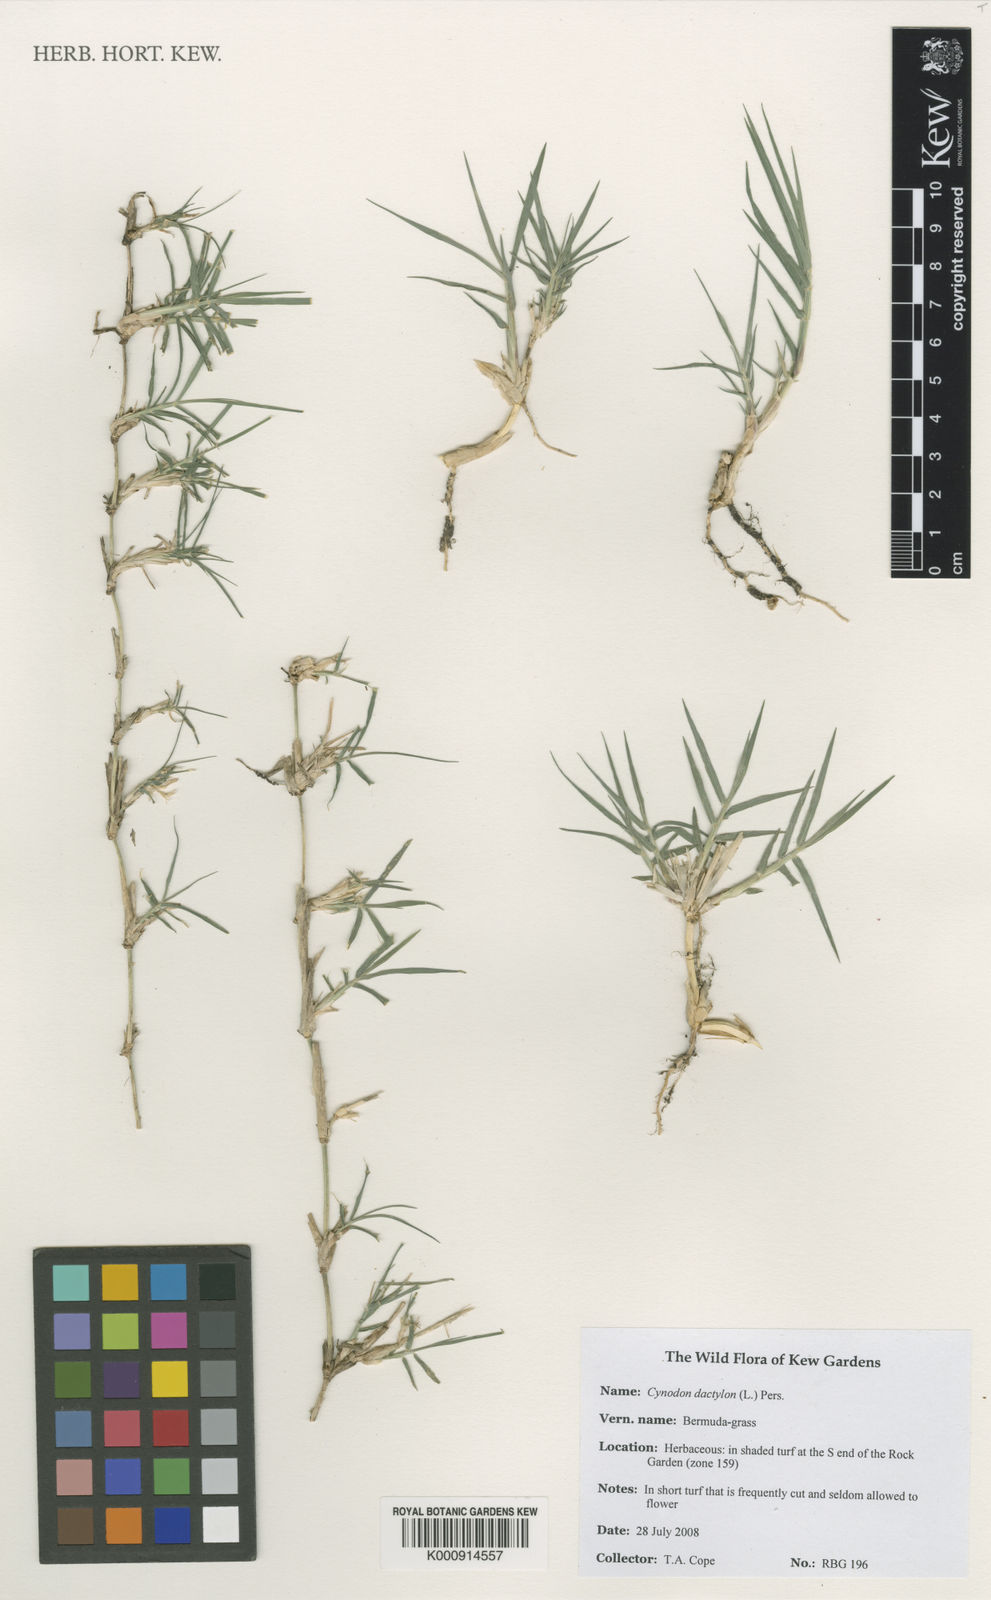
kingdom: Plantae
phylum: Tracheophyta
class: Liliopsida
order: Poales
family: Poaceae
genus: Cynodon
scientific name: Cynodon dactylon
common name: Bermuda grass
